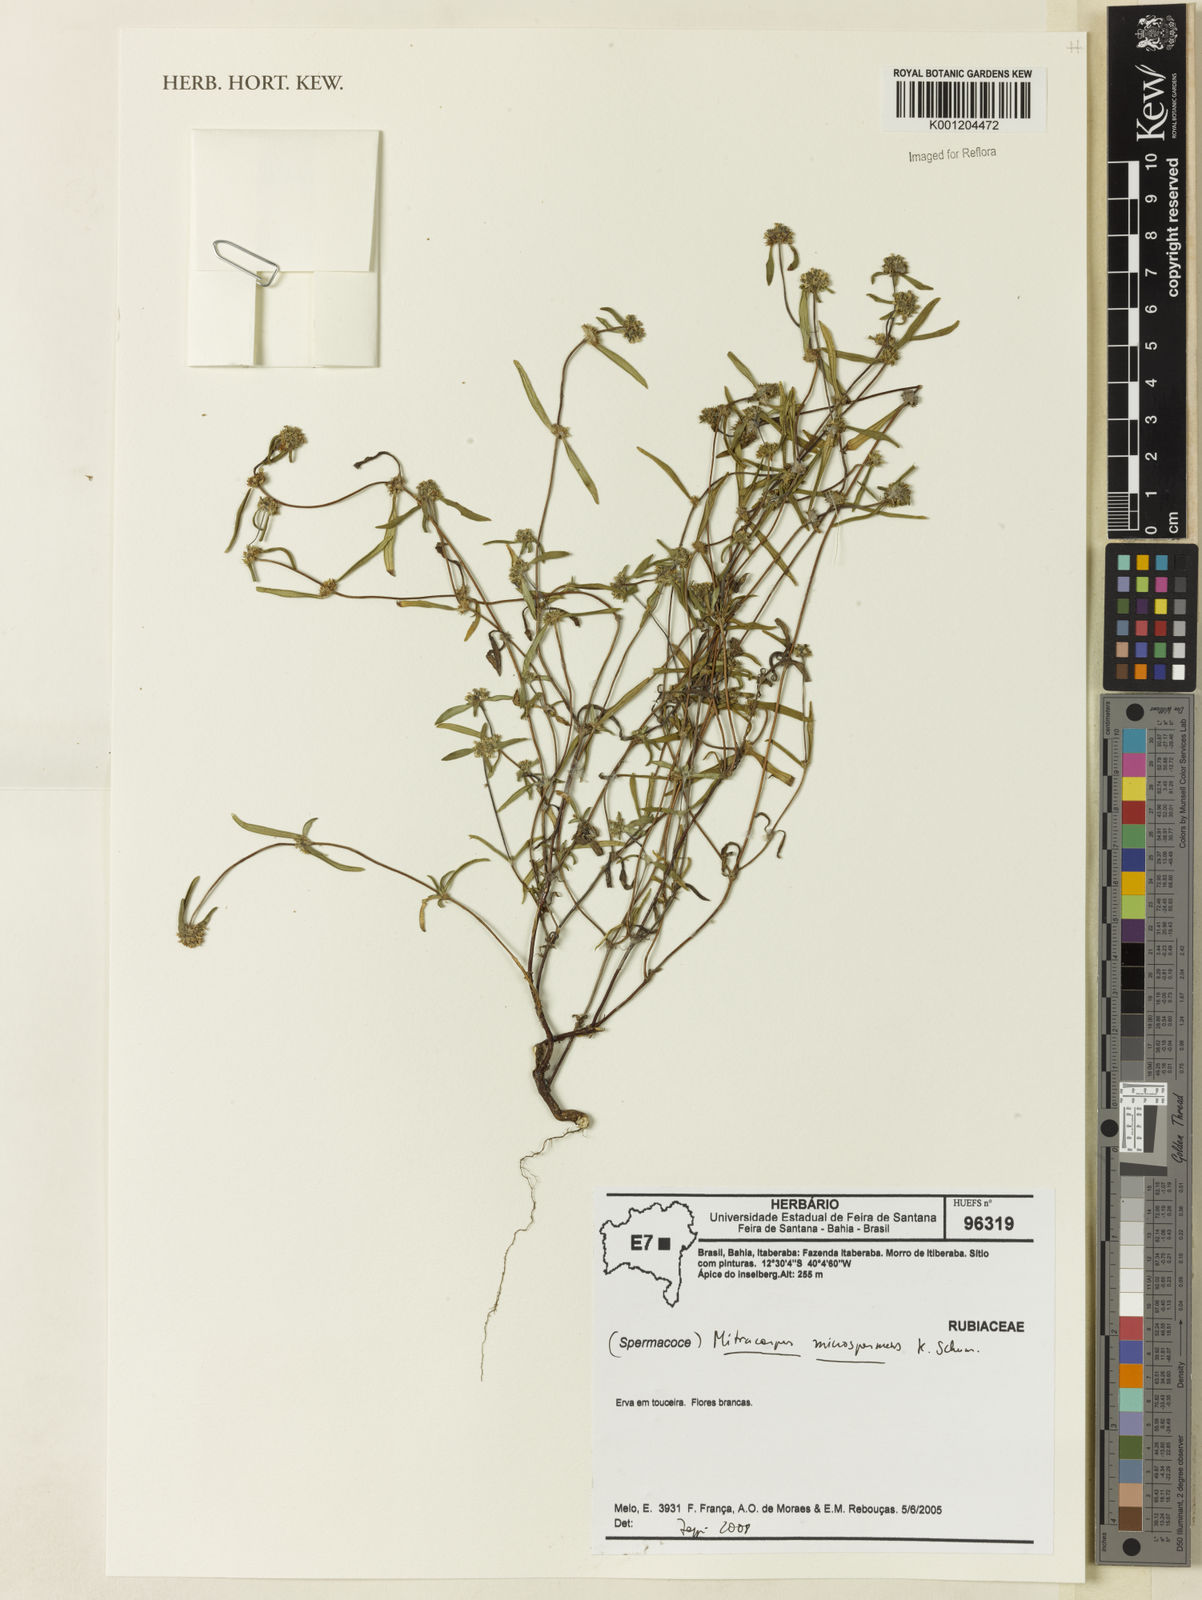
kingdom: Plantae
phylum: Tracheophyta
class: Magnoliopsida
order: Gentianales
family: Rubiaceae
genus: Mitracarpus
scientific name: Mitracarpus microspermus
